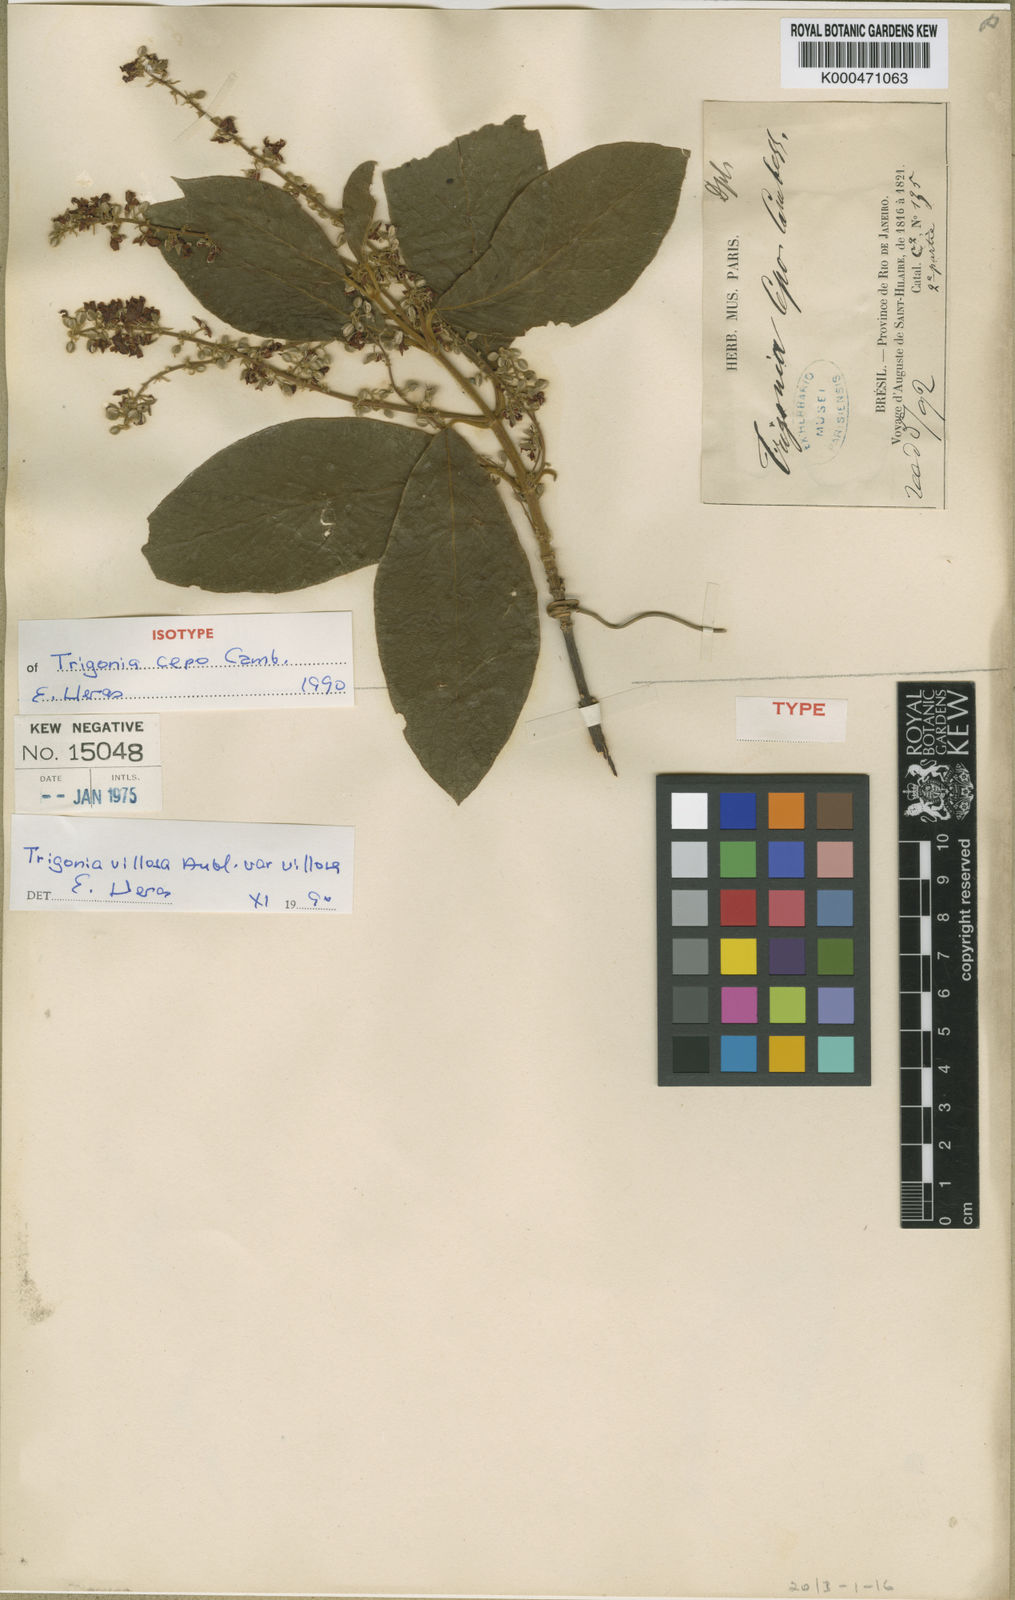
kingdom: Plantae
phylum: Tracheophyta
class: Magnoliopsida
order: Malpighiales
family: Trigoniaceae
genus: Trigonia
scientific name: Trigonia
